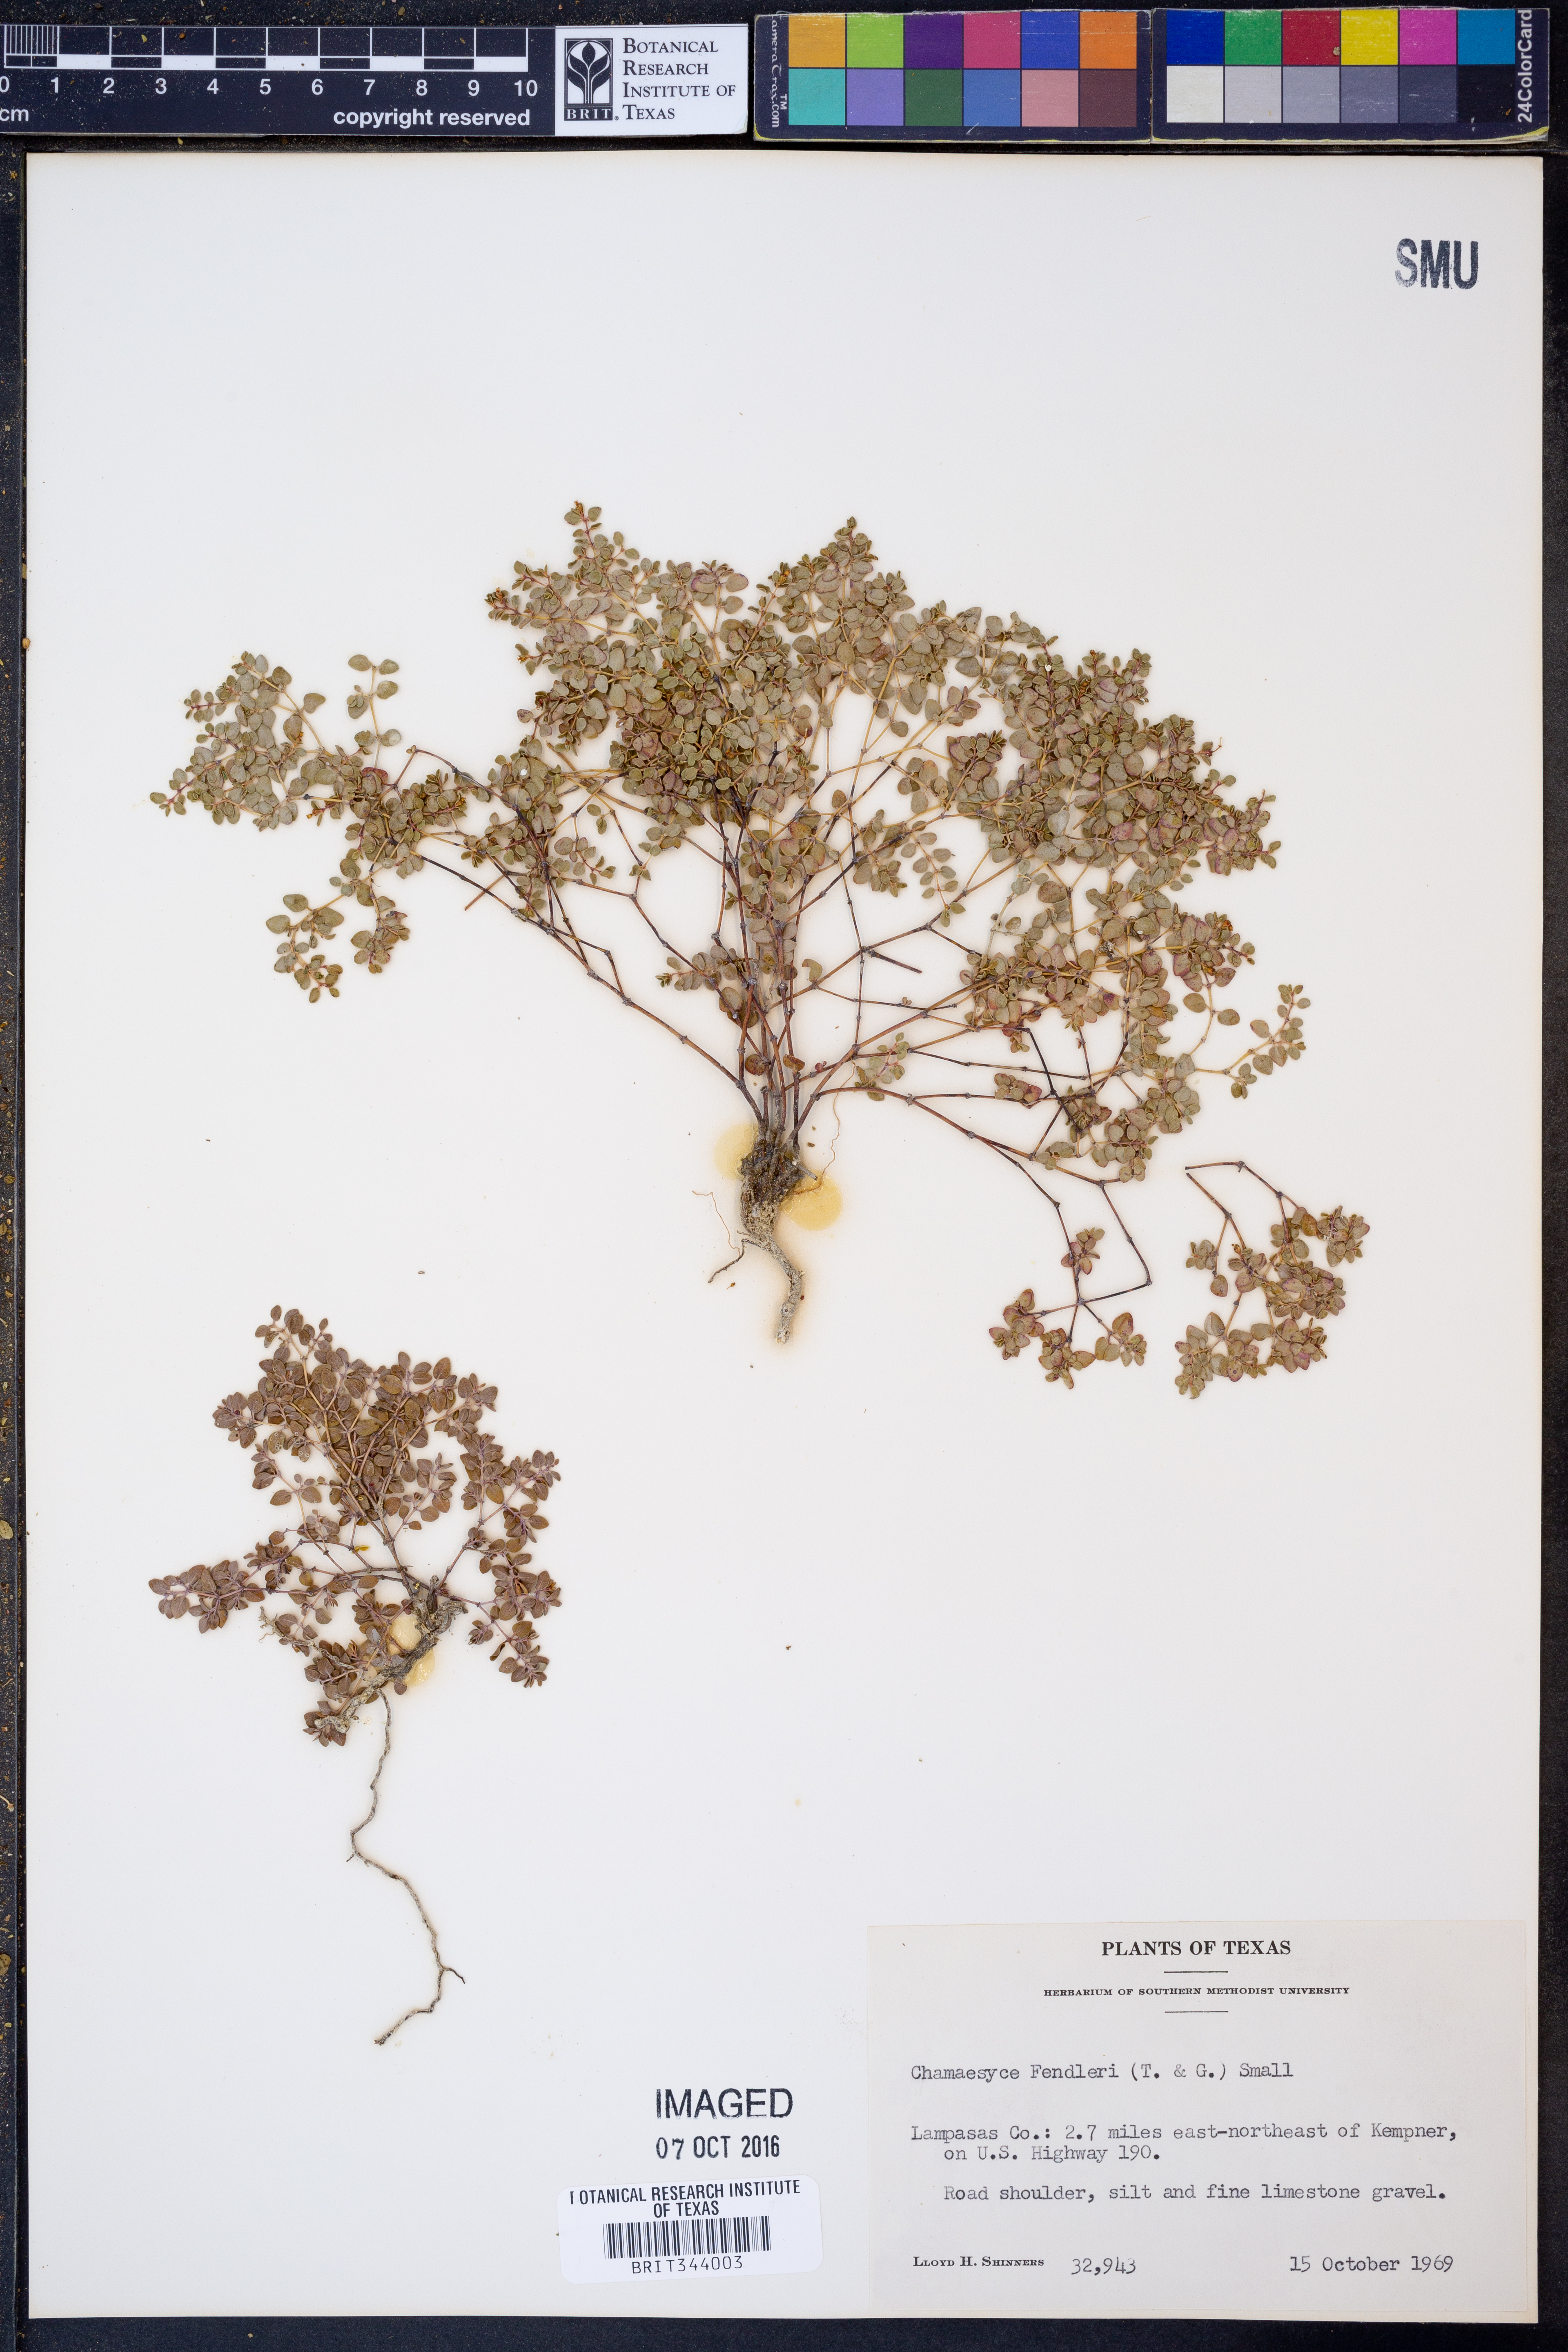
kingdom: Plantae
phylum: Tracheophyta
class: Magnoliopsida
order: Malpighiales
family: Euphorbiaceae
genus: Euphorbia
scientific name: Euphorbia fendleri
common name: Fendler's euphorbia
